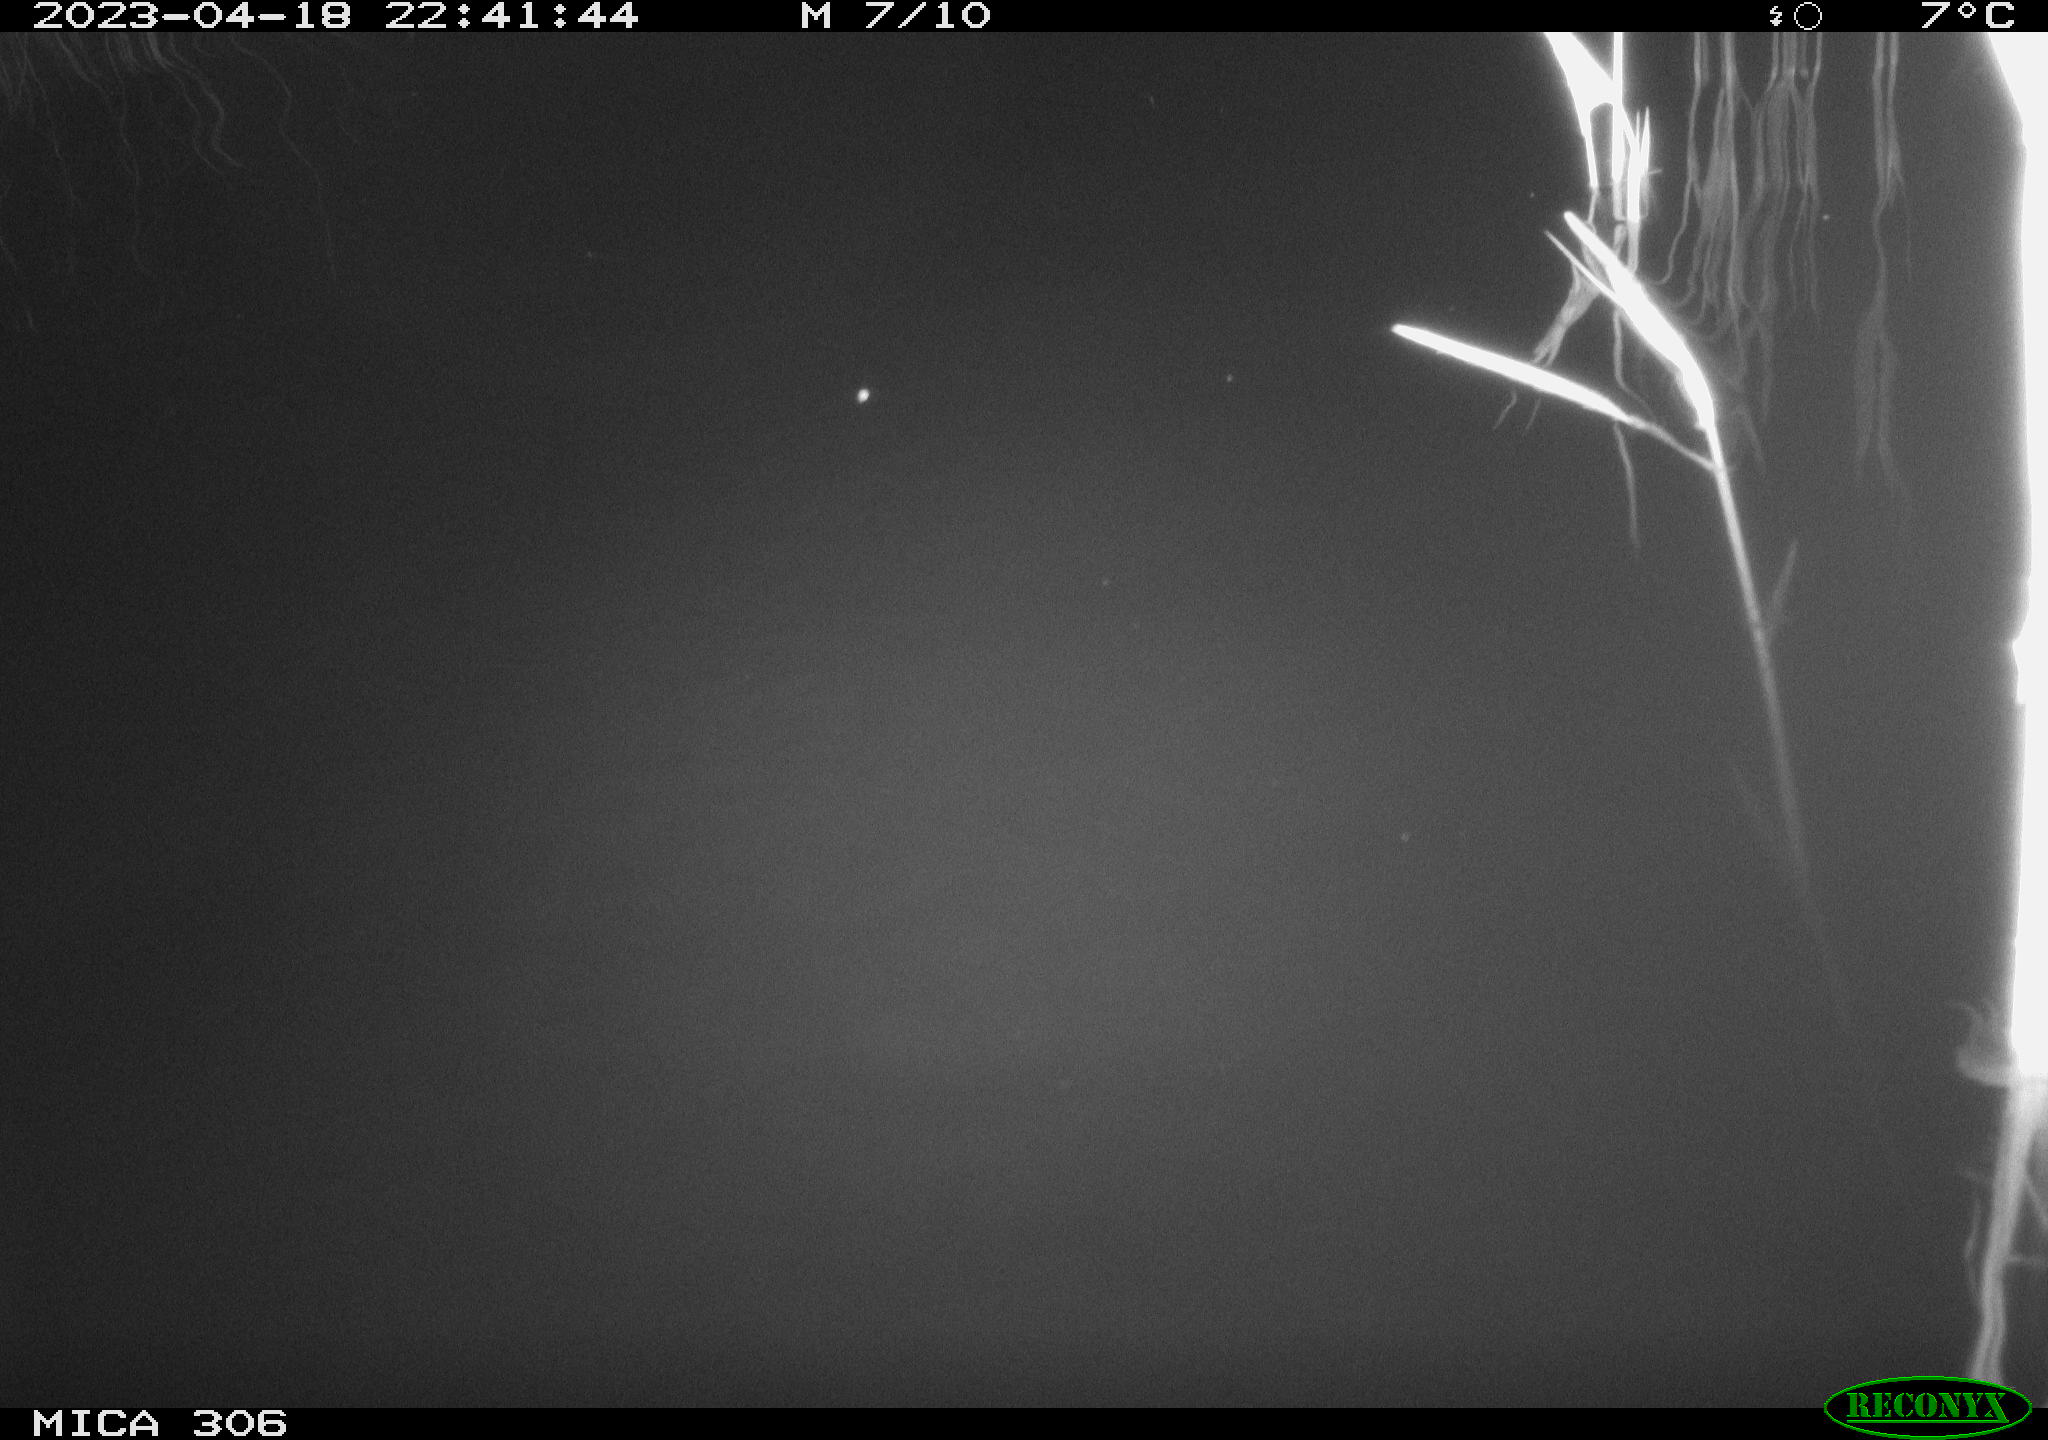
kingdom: Animalia
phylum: Chordata
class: Aves
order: Anseriformes
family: Anatidae
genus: Anas
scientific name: Anas
